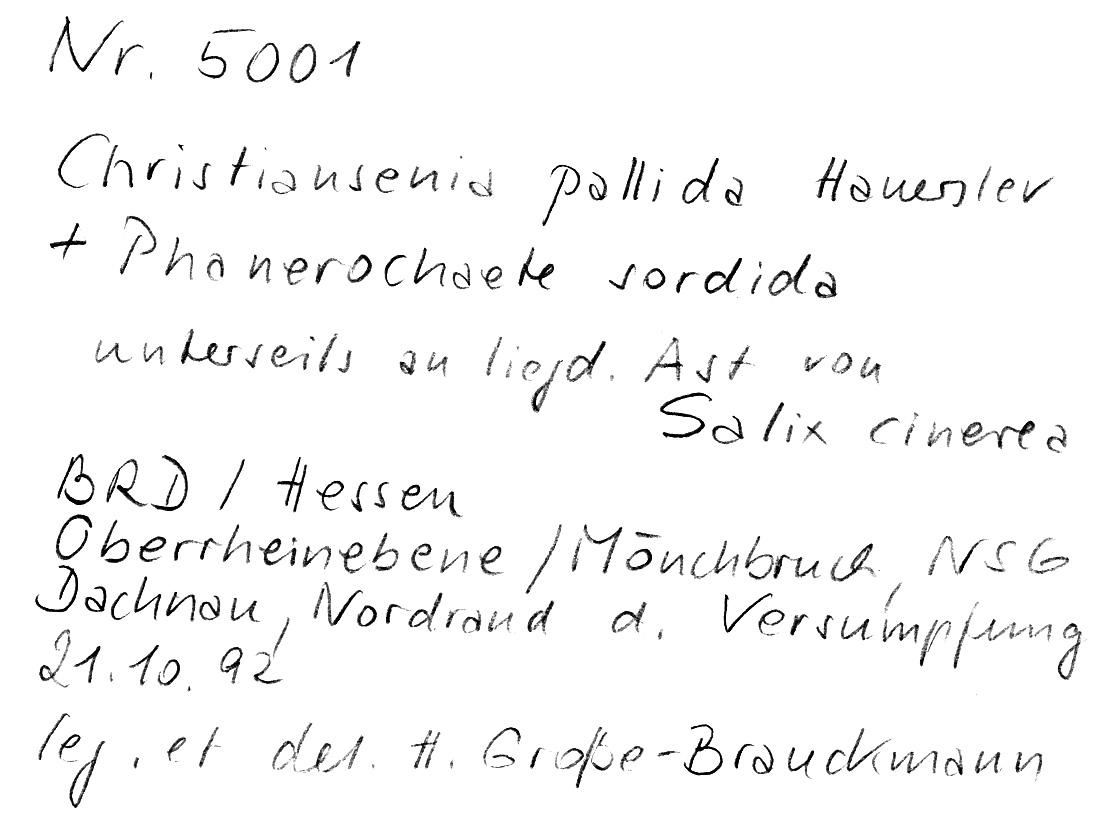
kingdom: Fungi
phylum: Basidiomycota
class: Tremellomycetes
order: Filobasidiales
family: Filobasidiaceae
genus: Syzygospora
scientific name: Syzygospora pallida
